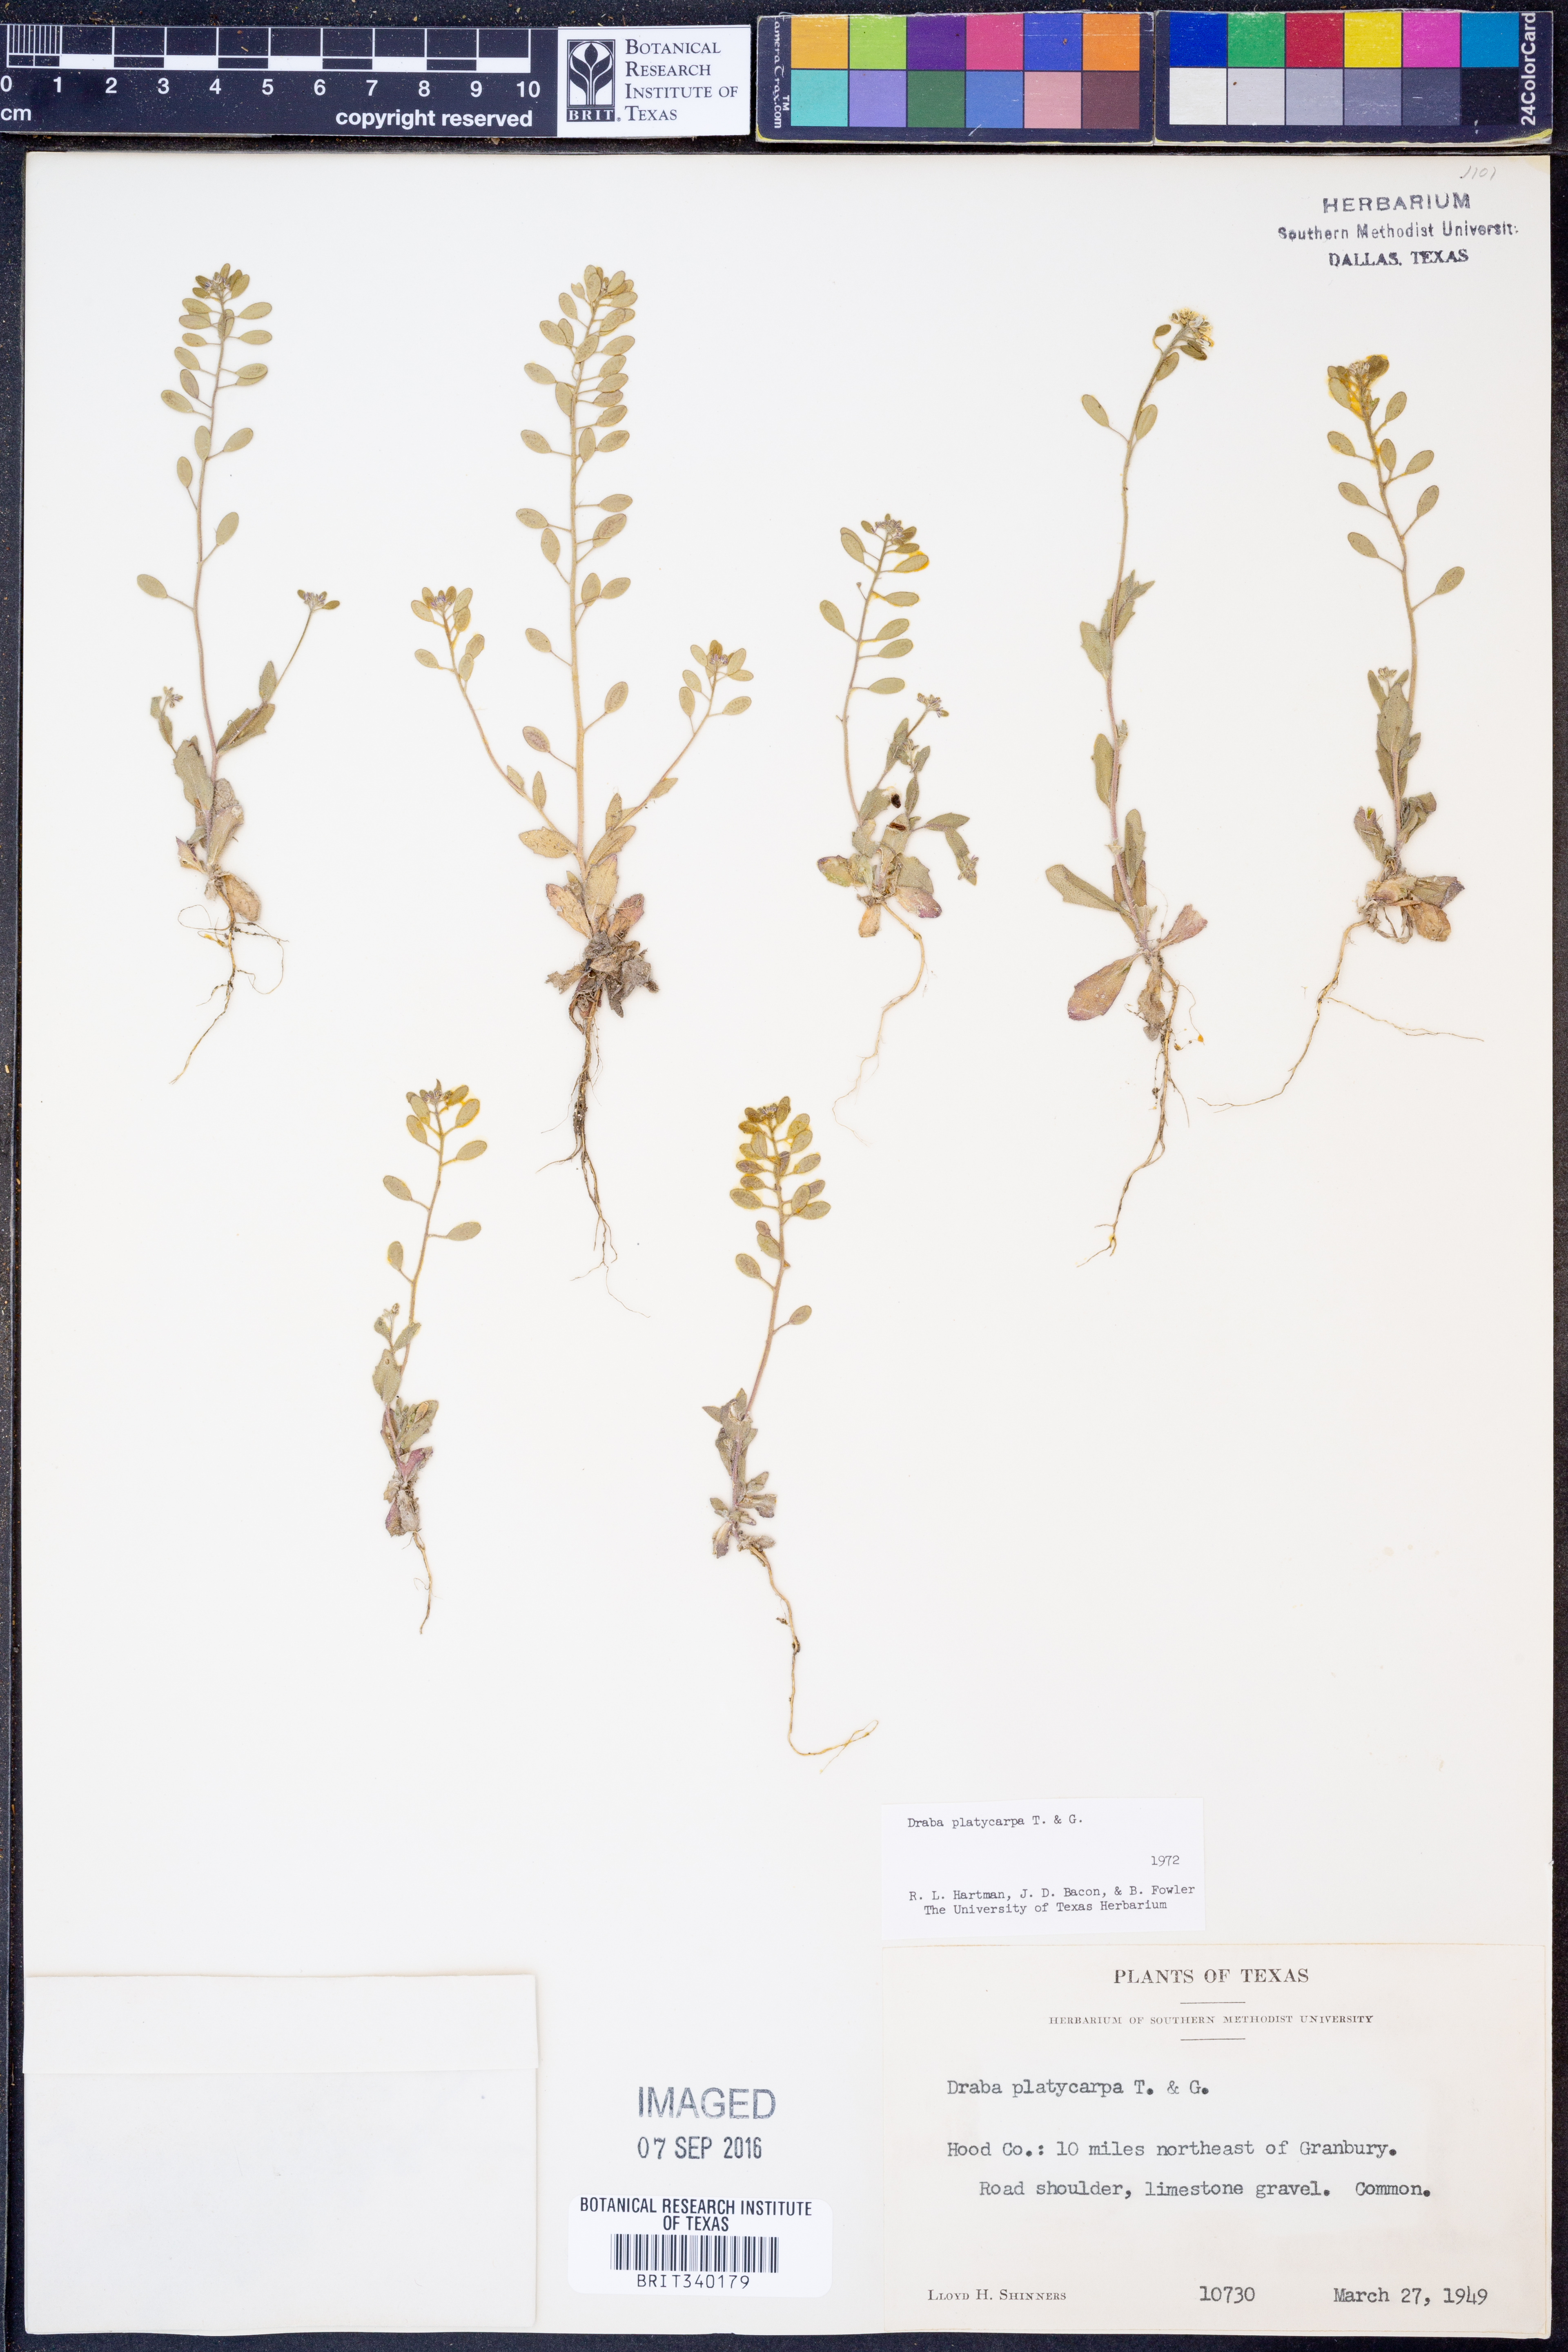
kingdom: Plantae
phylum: Tracheophyta
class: Magnoliopsida
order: Brassicales
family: Brassicaceae
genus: Tomostima
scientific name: Tomostima platycarpa
